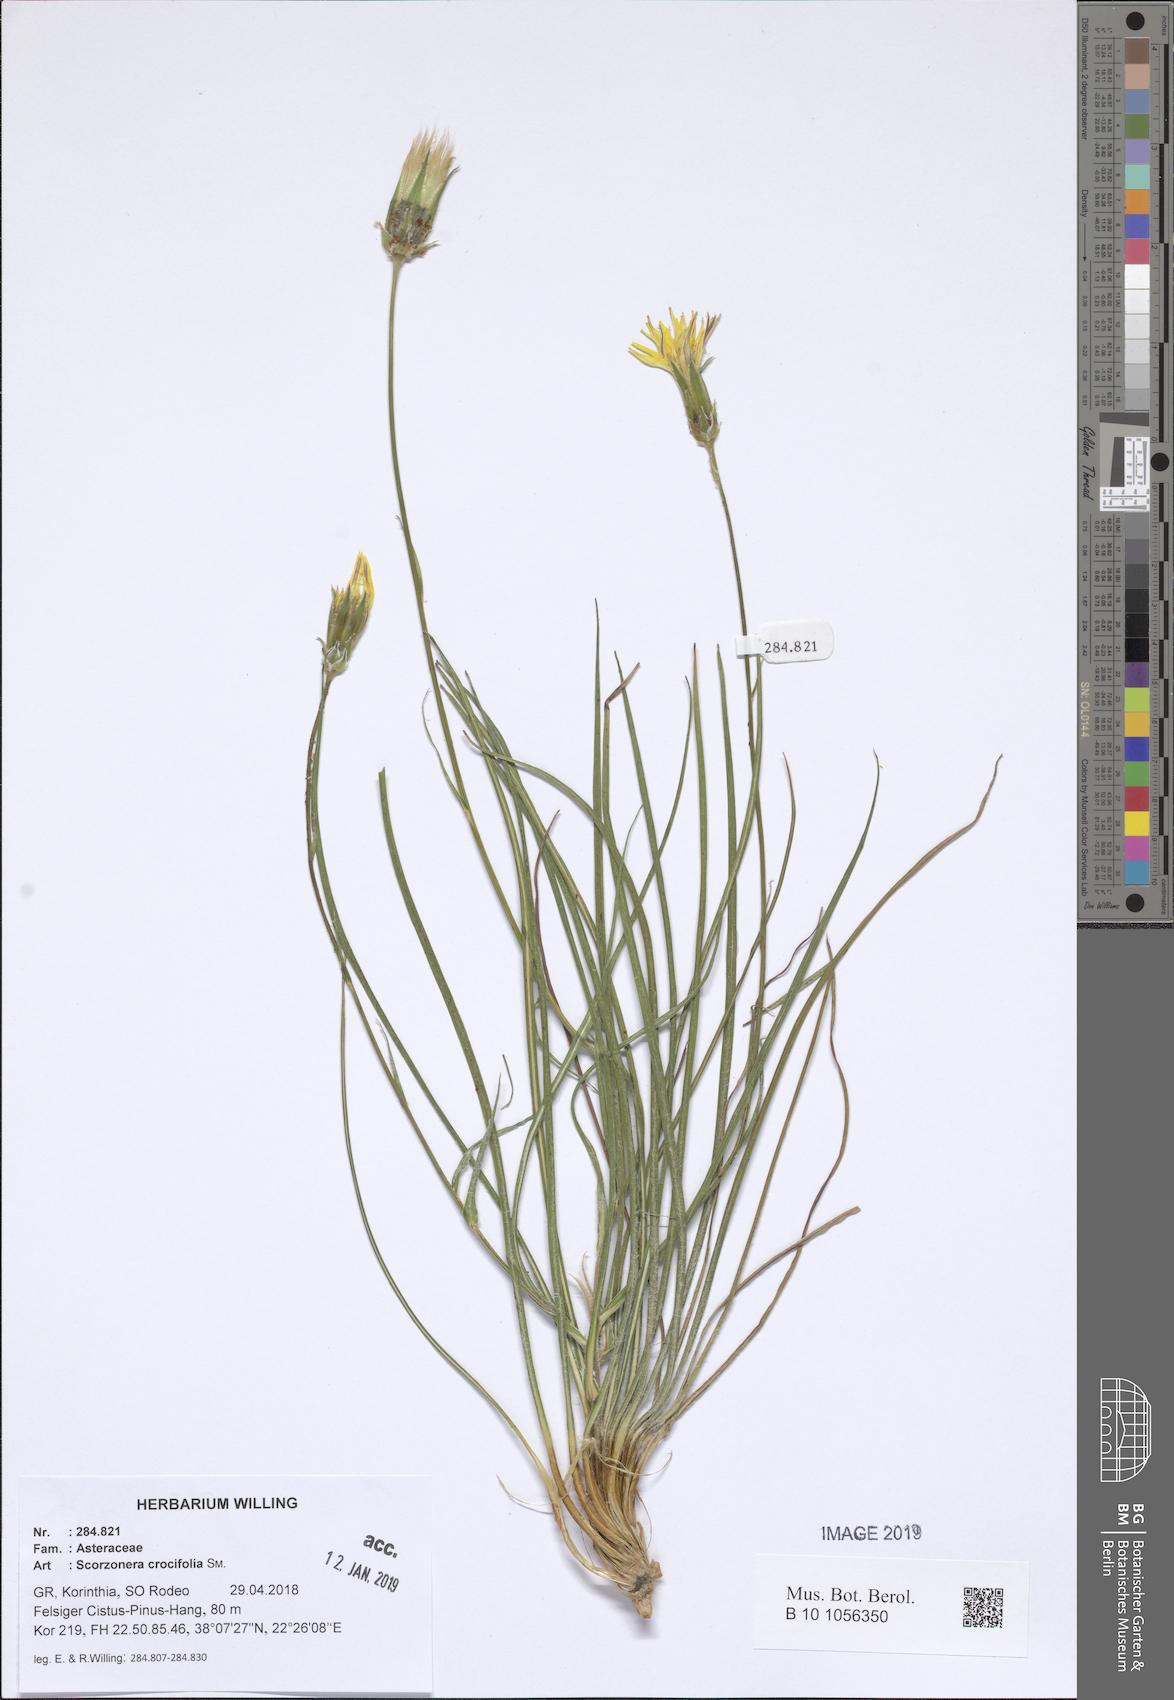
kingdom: Plantae
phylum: Tracheophyta
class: Magnoliopsida
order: Asterales
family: Asteraceae
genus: Pseudopodospermum
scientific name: Pseudopodospermum crocifolium
